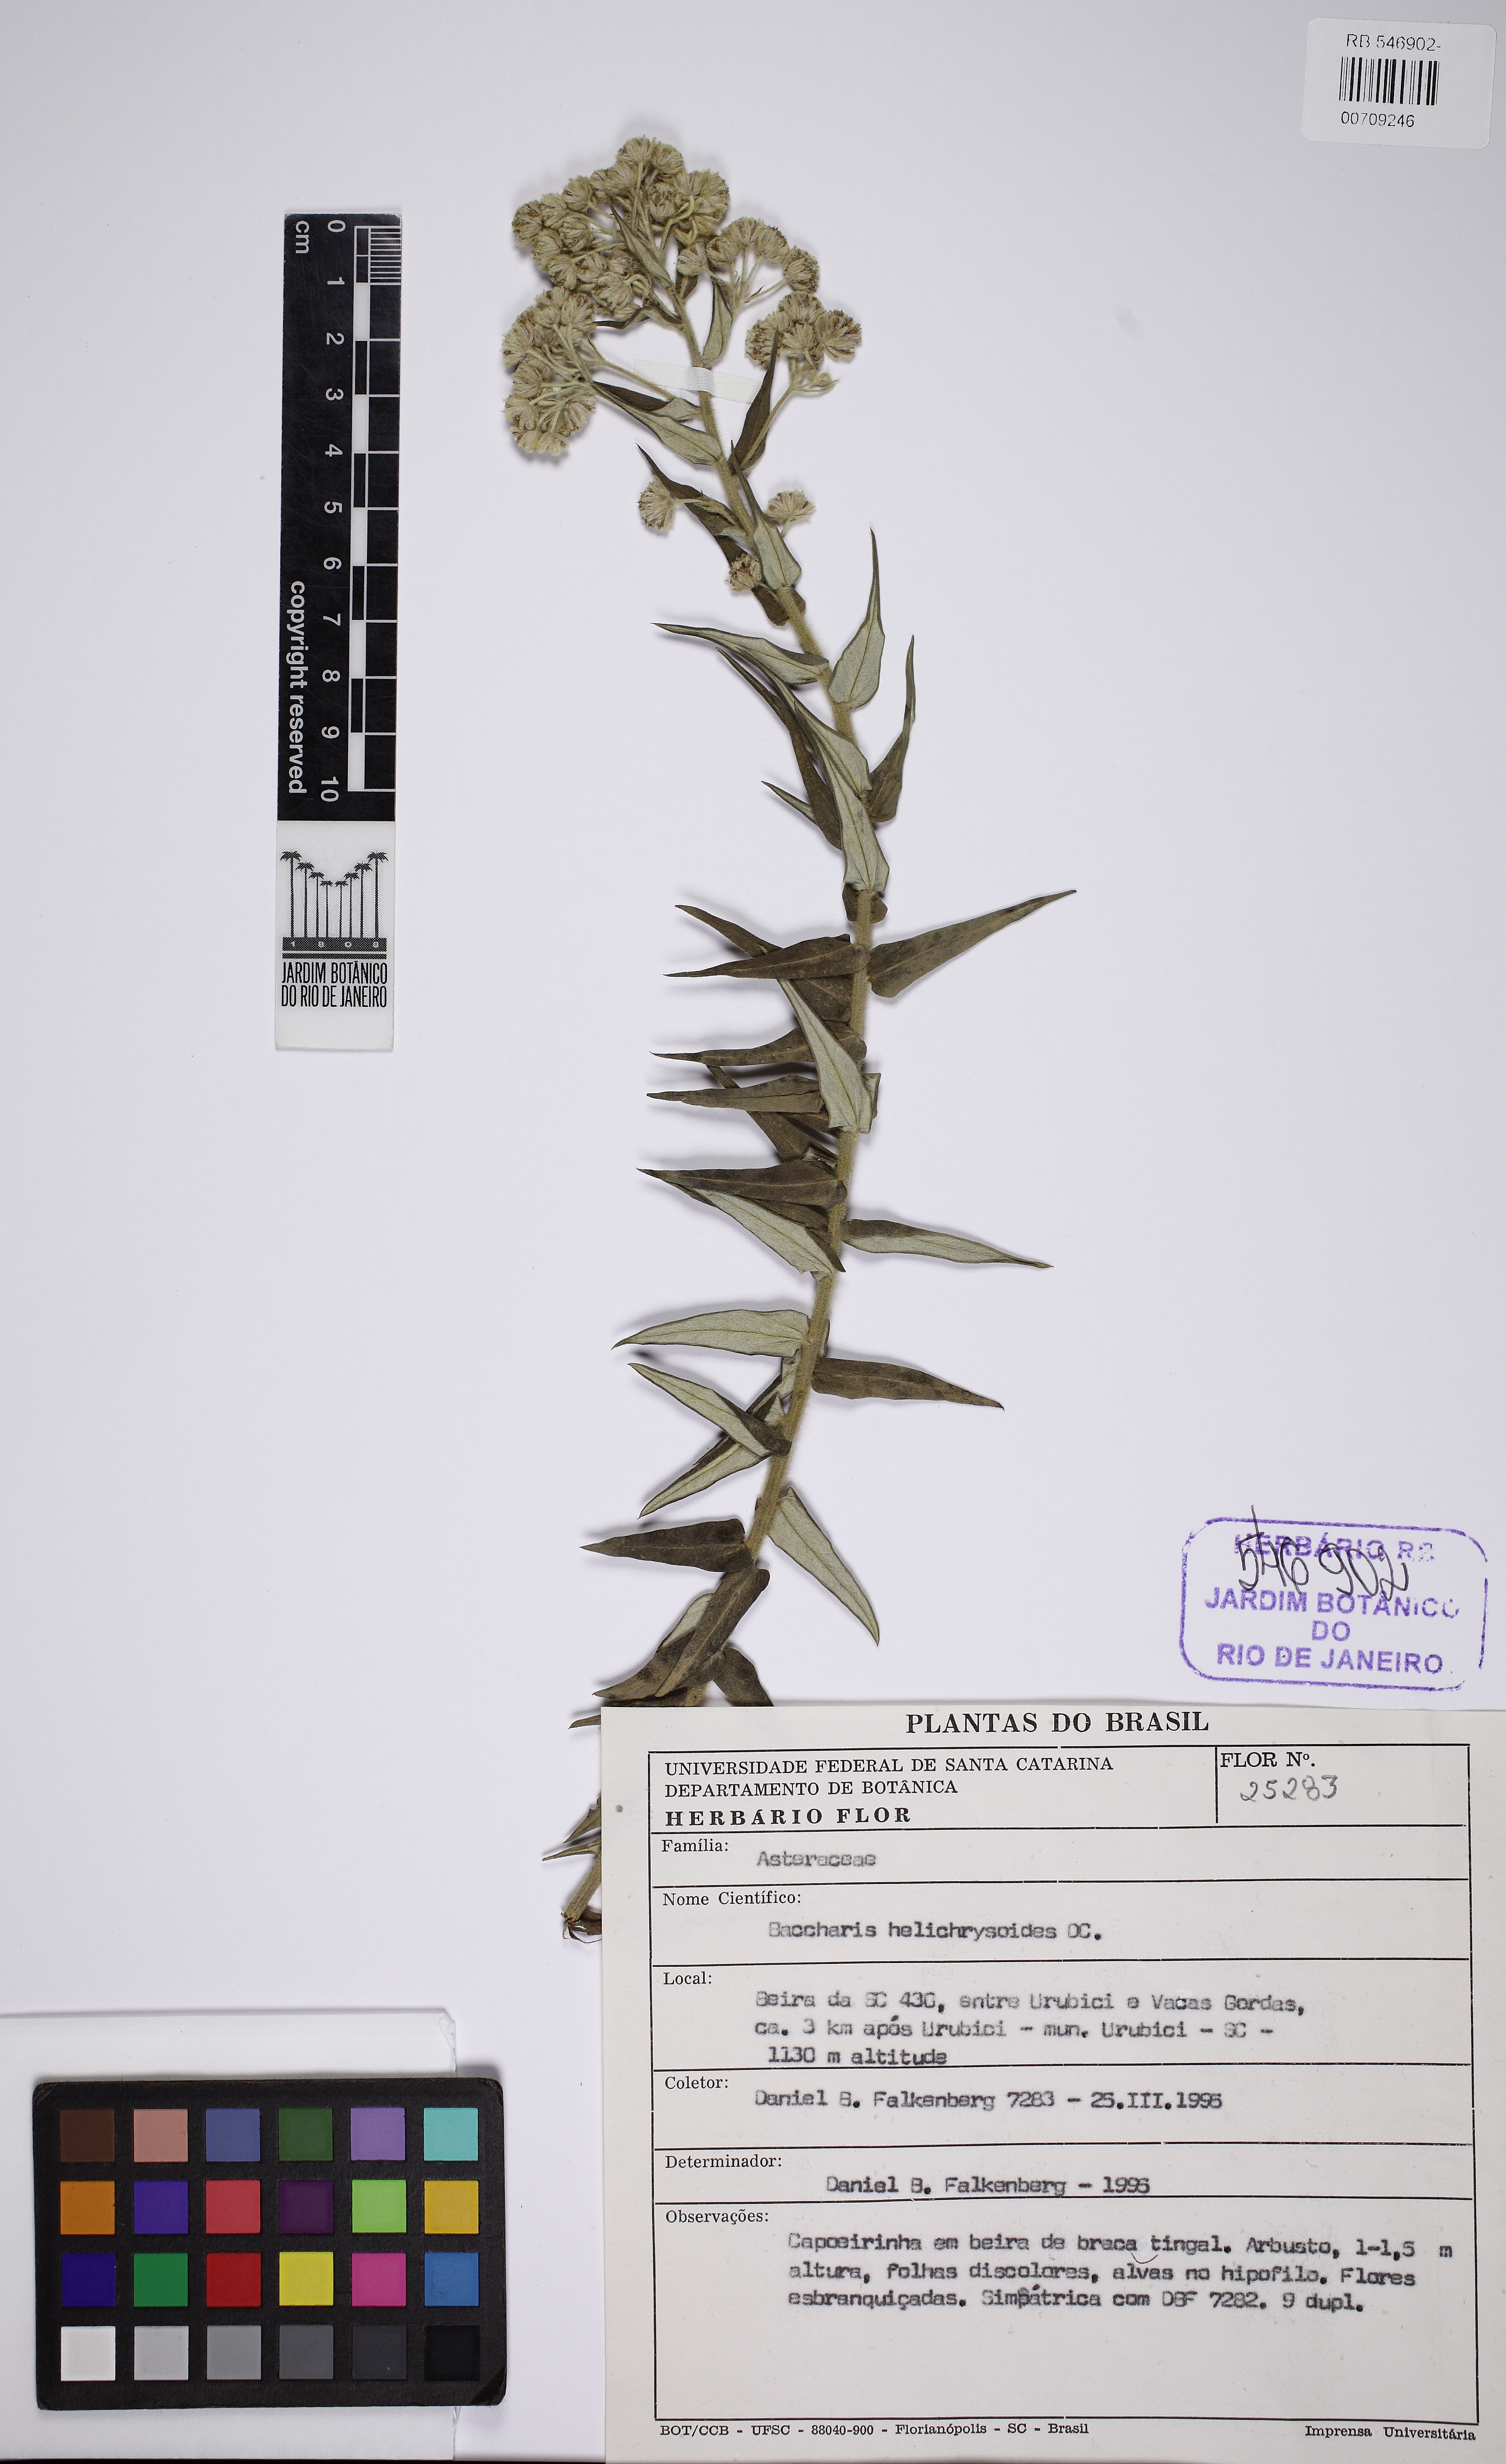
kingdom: Plantae
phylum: Tracheophyta
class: Magnoliopsida
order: Asterales
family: Asteraceae
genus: Baccharis
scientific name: Baccharis helichrysoides
